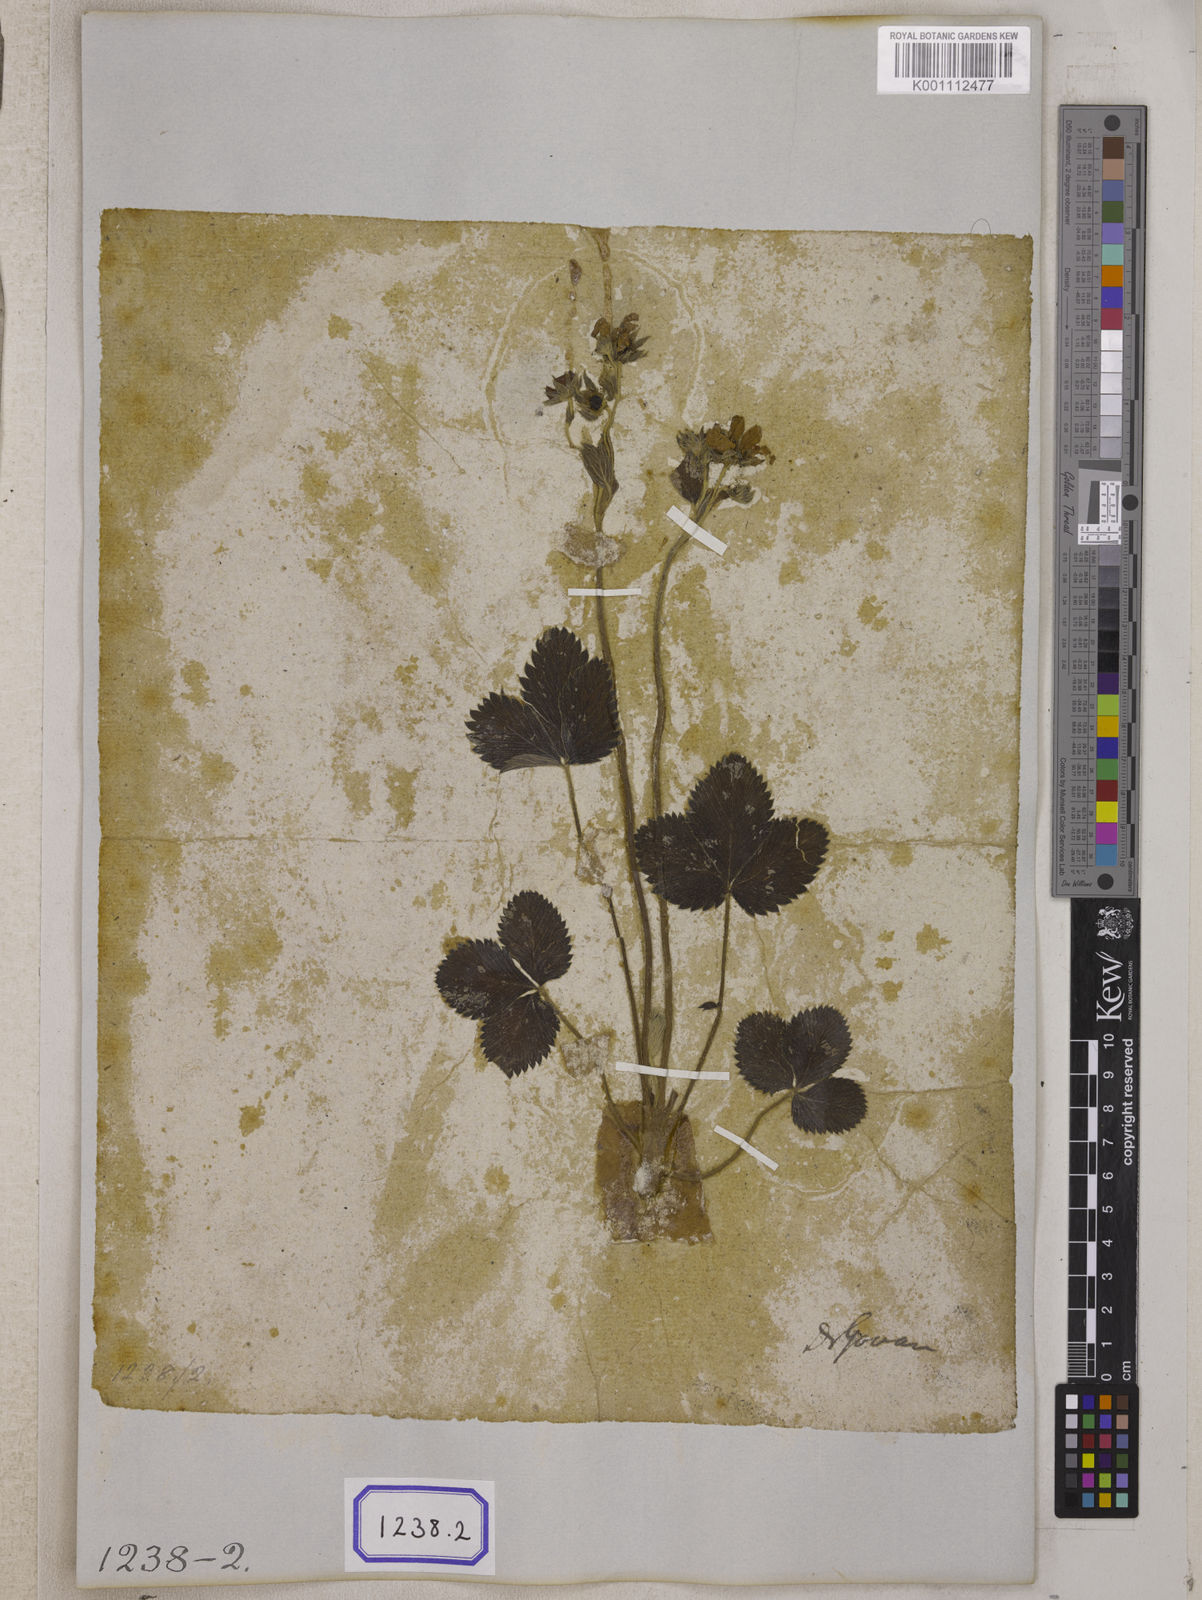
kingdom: Plantae
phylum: Tracheophyta
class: Magnoliopsida
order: Rosales
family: Rosaceae
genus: Fragaria
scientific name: Fragaria
